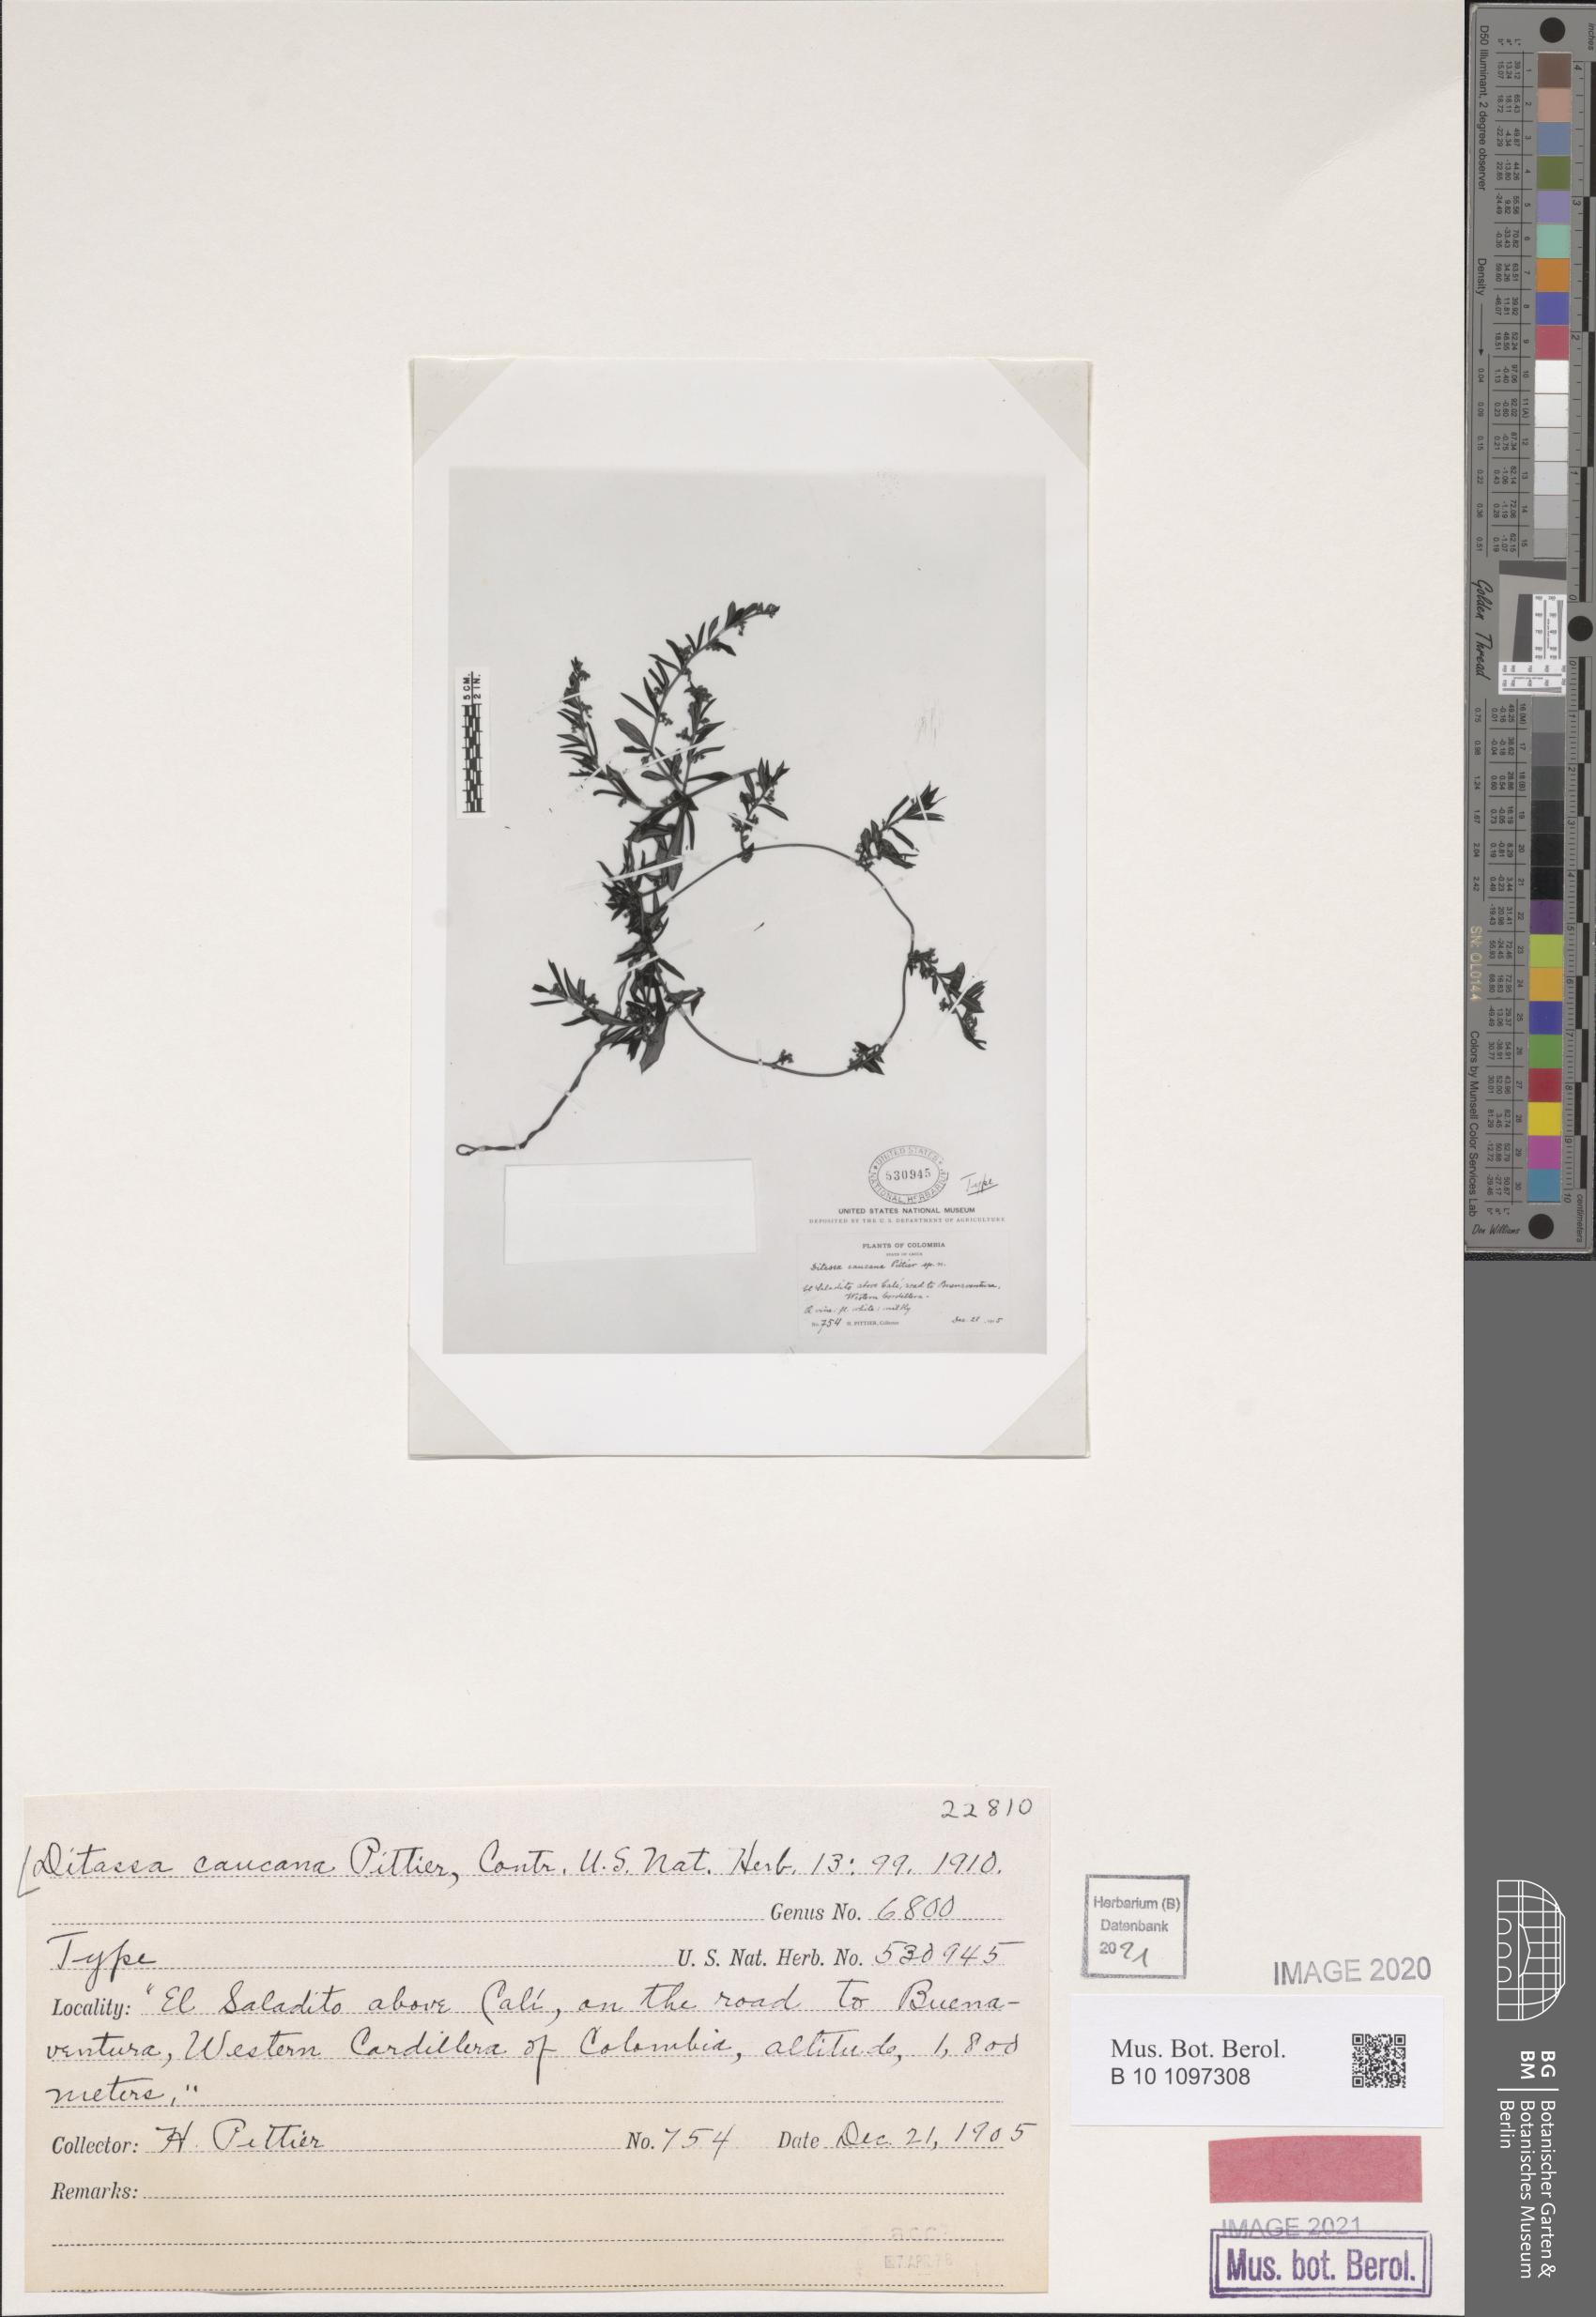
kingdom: Plantae
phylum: Tracheophyta
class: Magnoliopsida
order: Gentianales
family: Apocynaceae
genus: Ditassa
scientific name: Ditassa caucana
